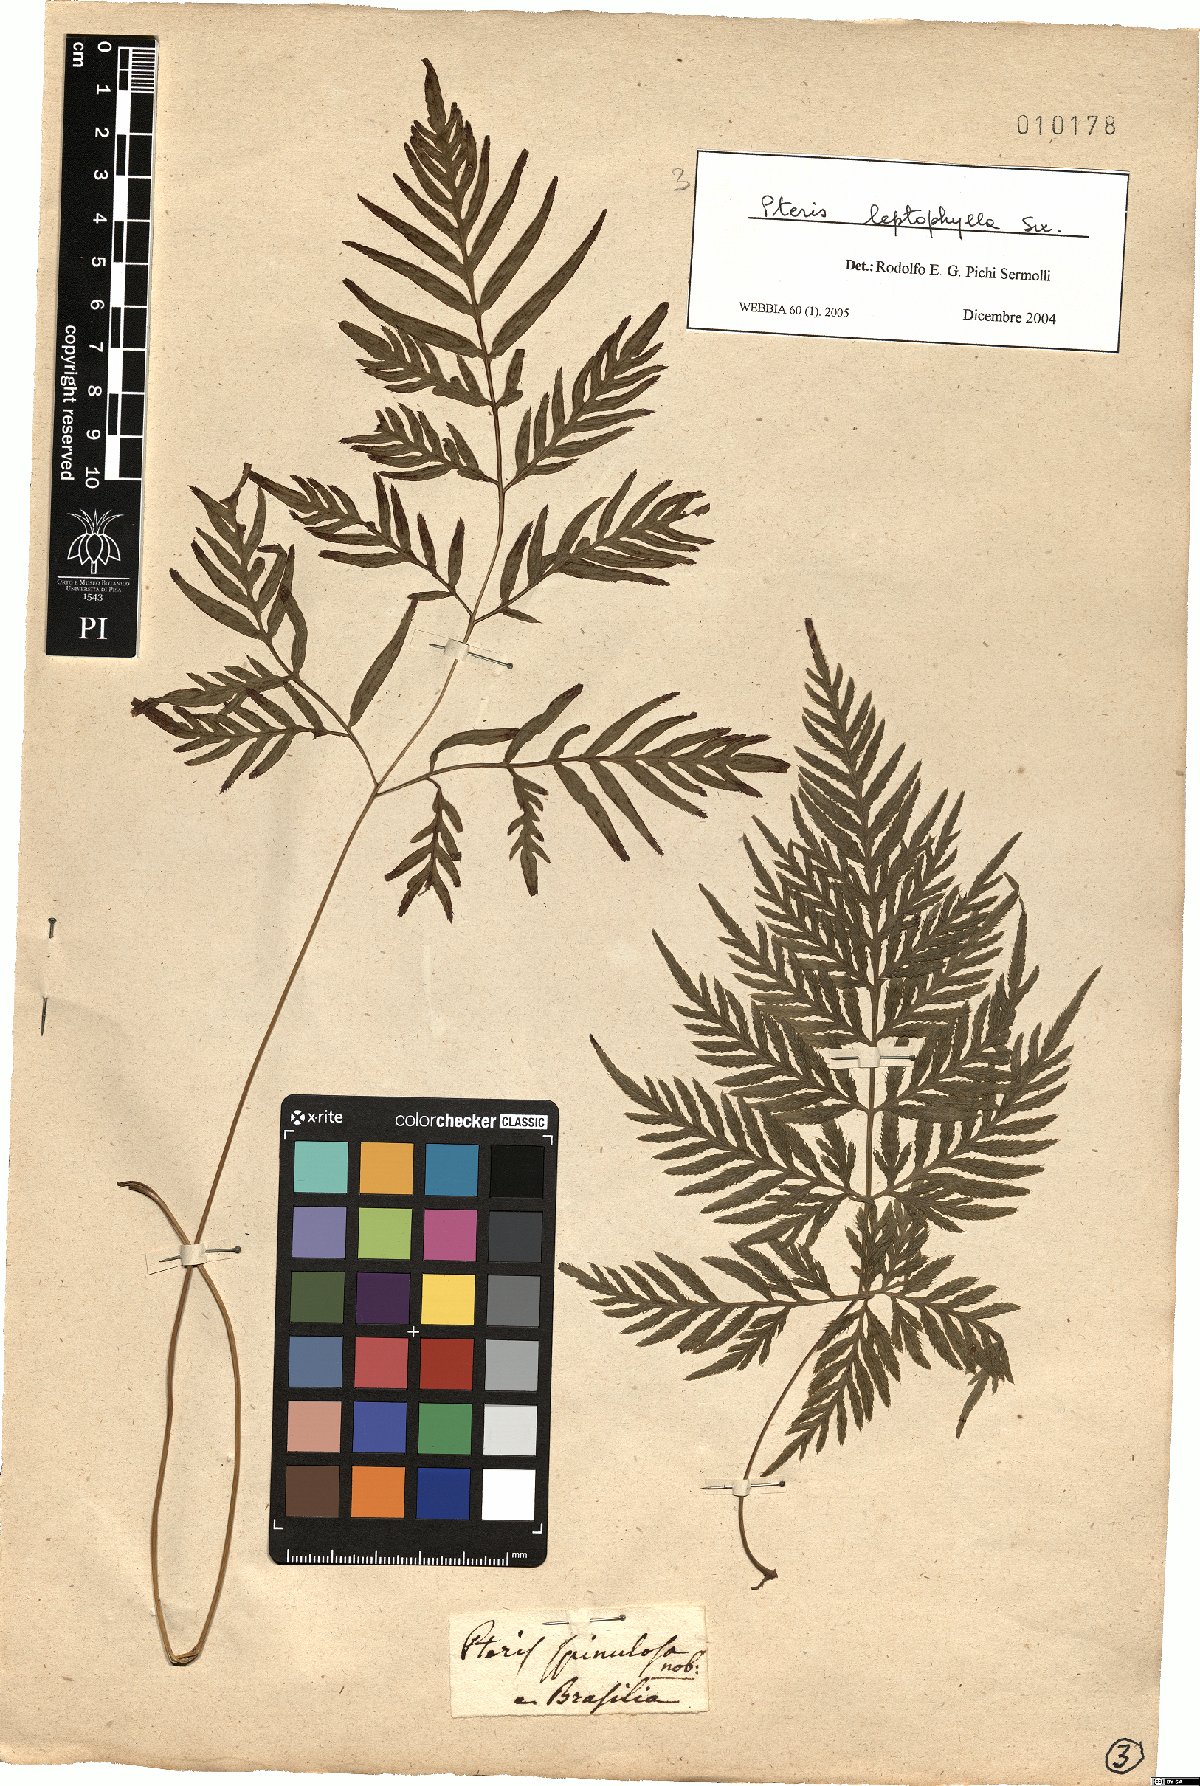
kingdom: Plantae
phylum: Tracheophyta
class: Polypodiopsida
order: Polypodiales
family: Pteridaceae
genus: Pteris
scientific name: Pteris leptophylla
